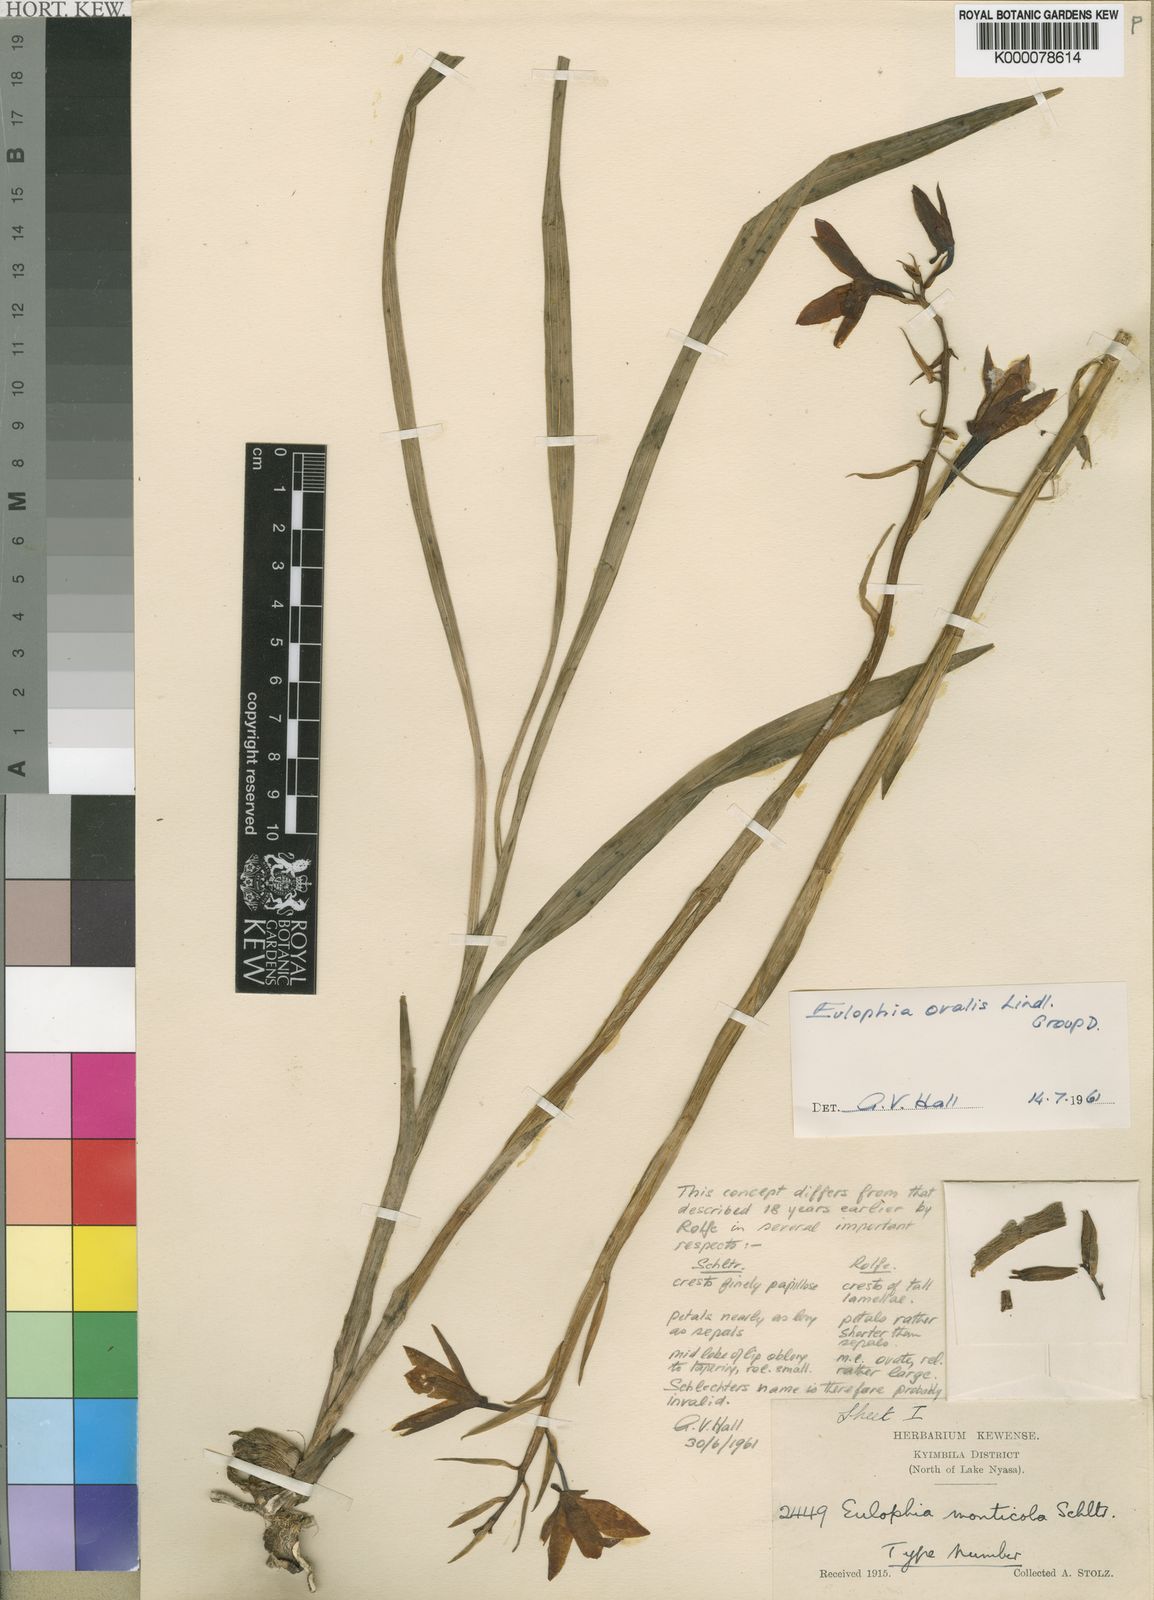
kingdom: Plantae
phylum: Tracheophyta
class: Liliopsida
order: Asparagales
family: Orchidaceae
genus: Eulophia
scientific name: Eulophia ovalis
